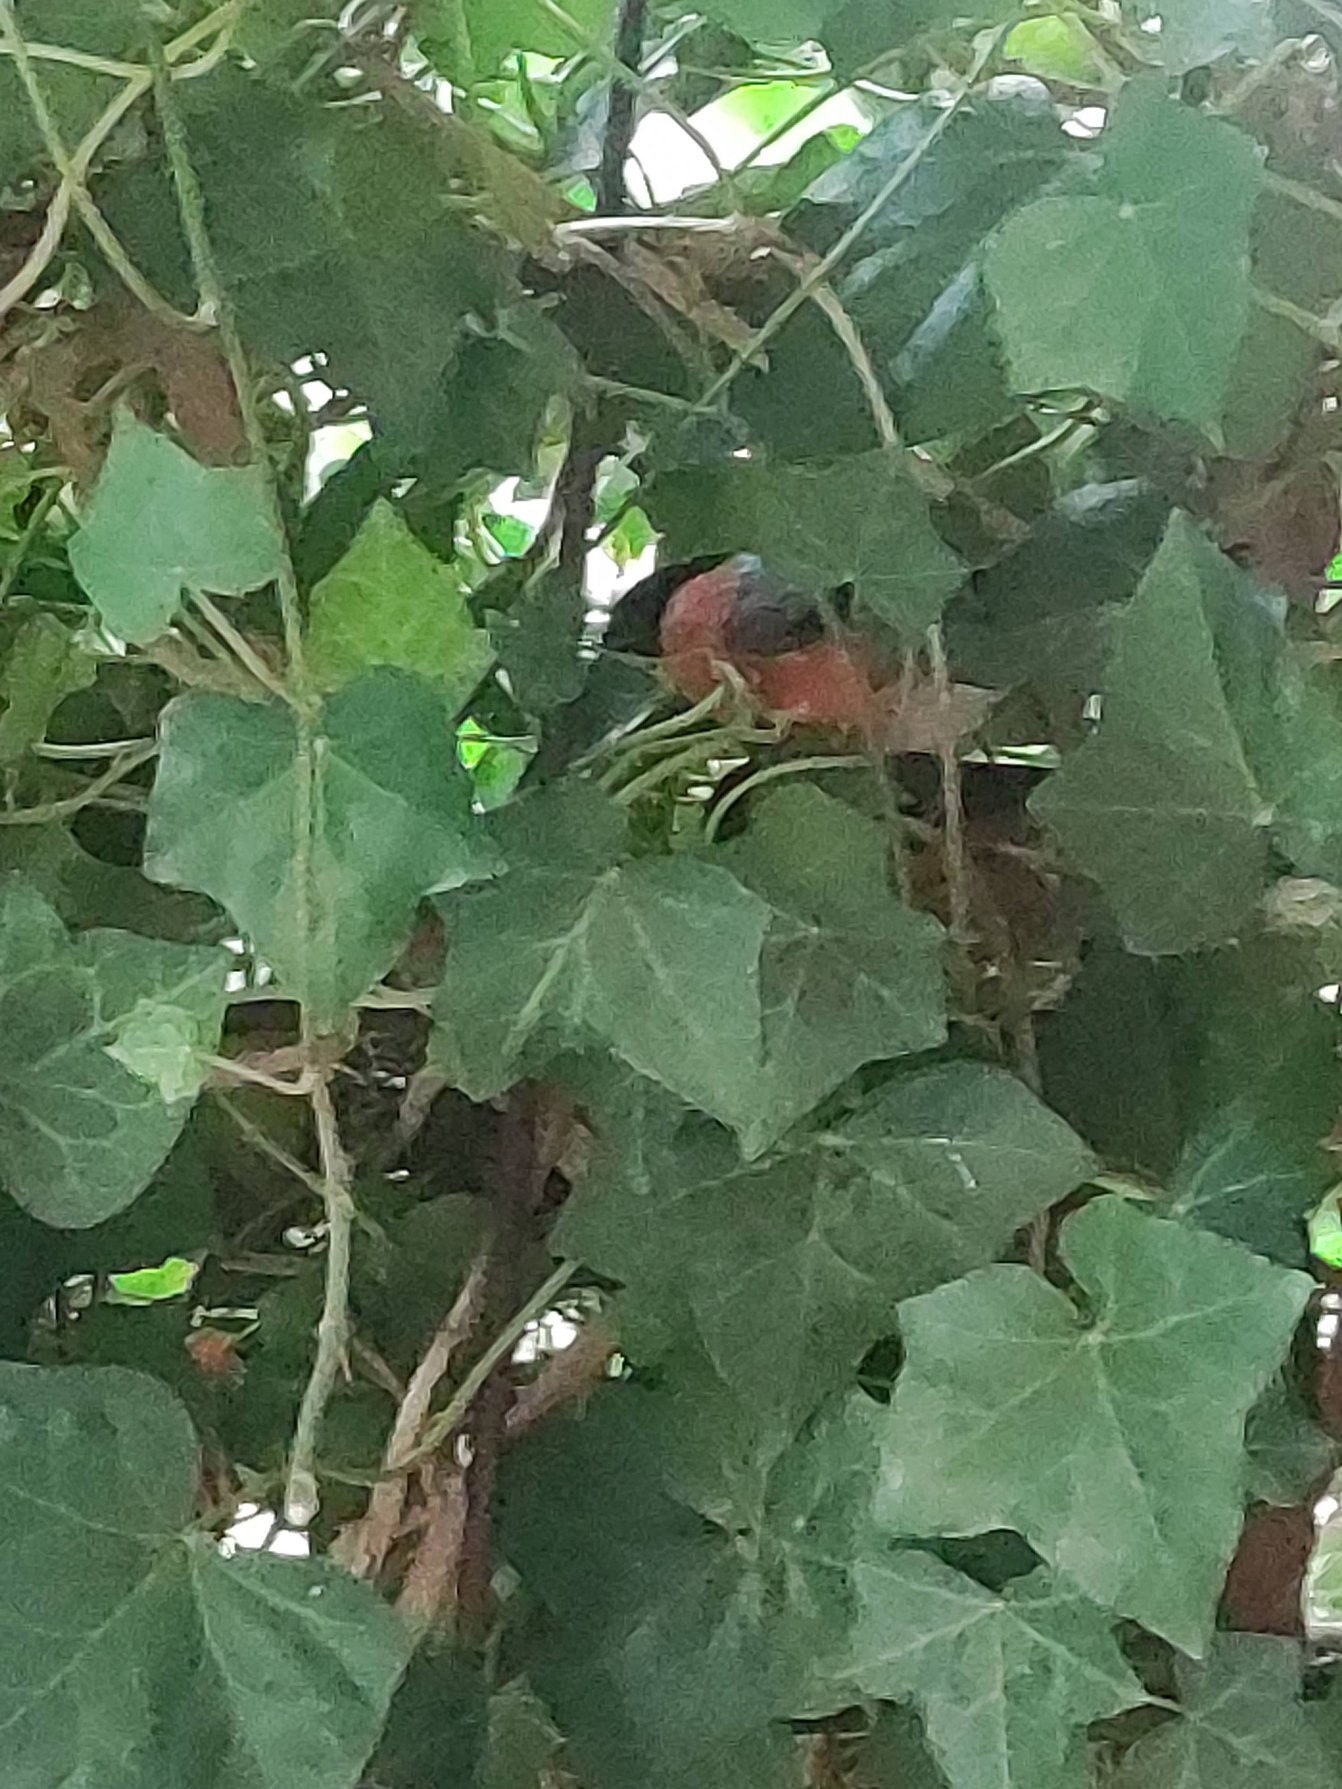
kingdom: Animalia
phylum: Chordata
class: Aves
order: Passeriformes
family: Fringillidae
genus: Pyrrhula
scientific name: Pyrrhula pyrrhula
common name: Dompap
